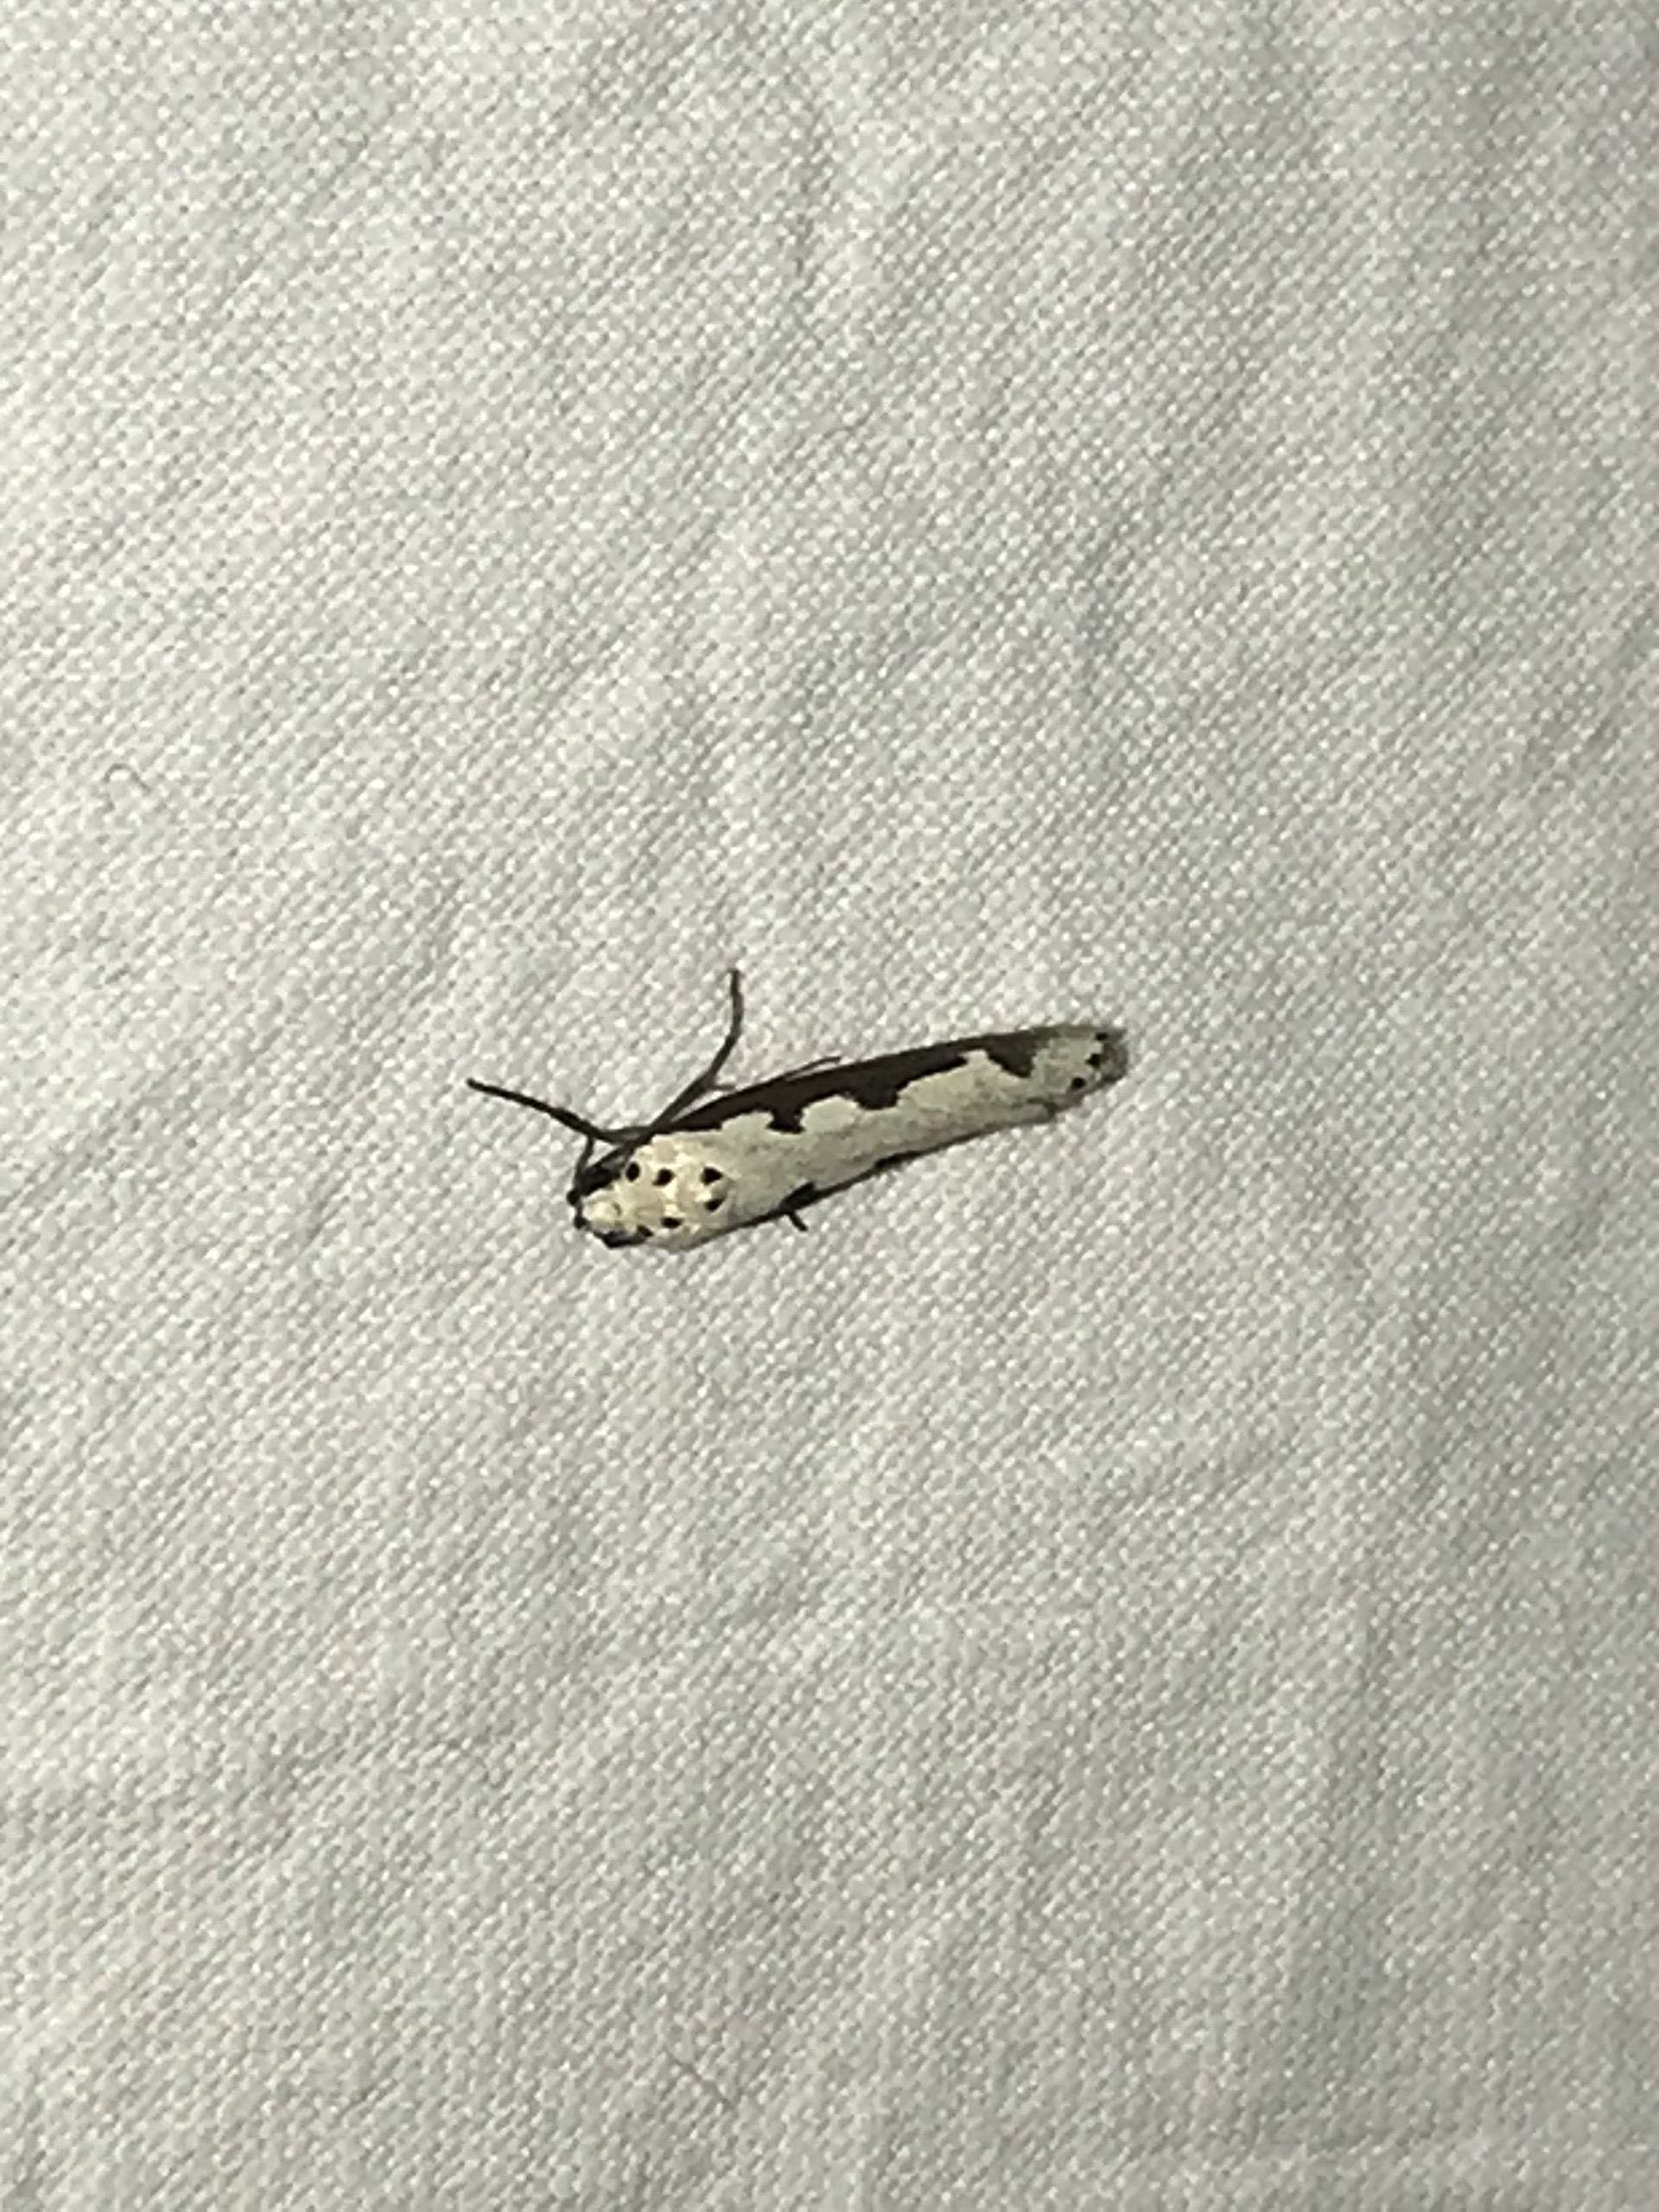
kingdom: Animalia
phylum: Arthropoda
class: Insecta
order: Lepidoptera
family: Ethmiidae
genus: Ethmia
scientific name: Ethmia bipunctella
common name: Slangehovedmøl
